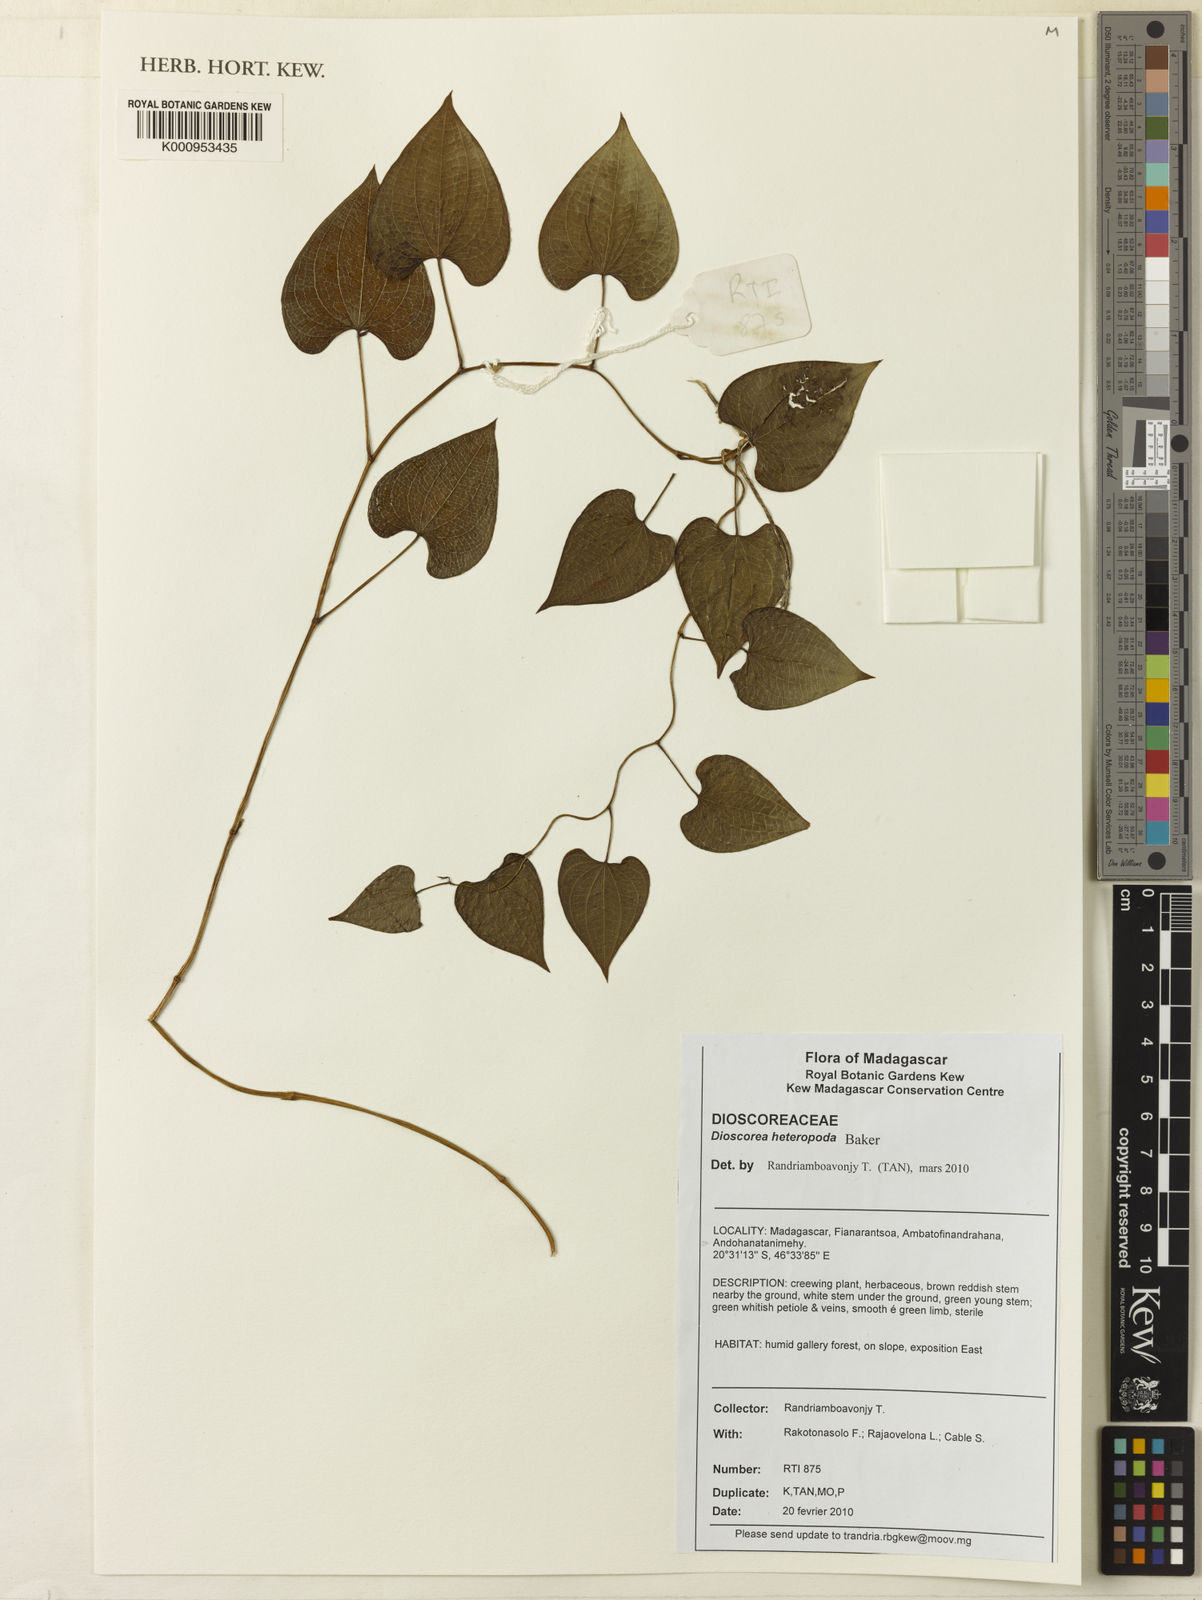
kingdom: Plantae
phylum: Tracheophyta
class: Liliopsida
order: Dioscoreales
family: Dioscoreaceae
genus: Dioscorea
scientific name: Dioscorea heteropoda
